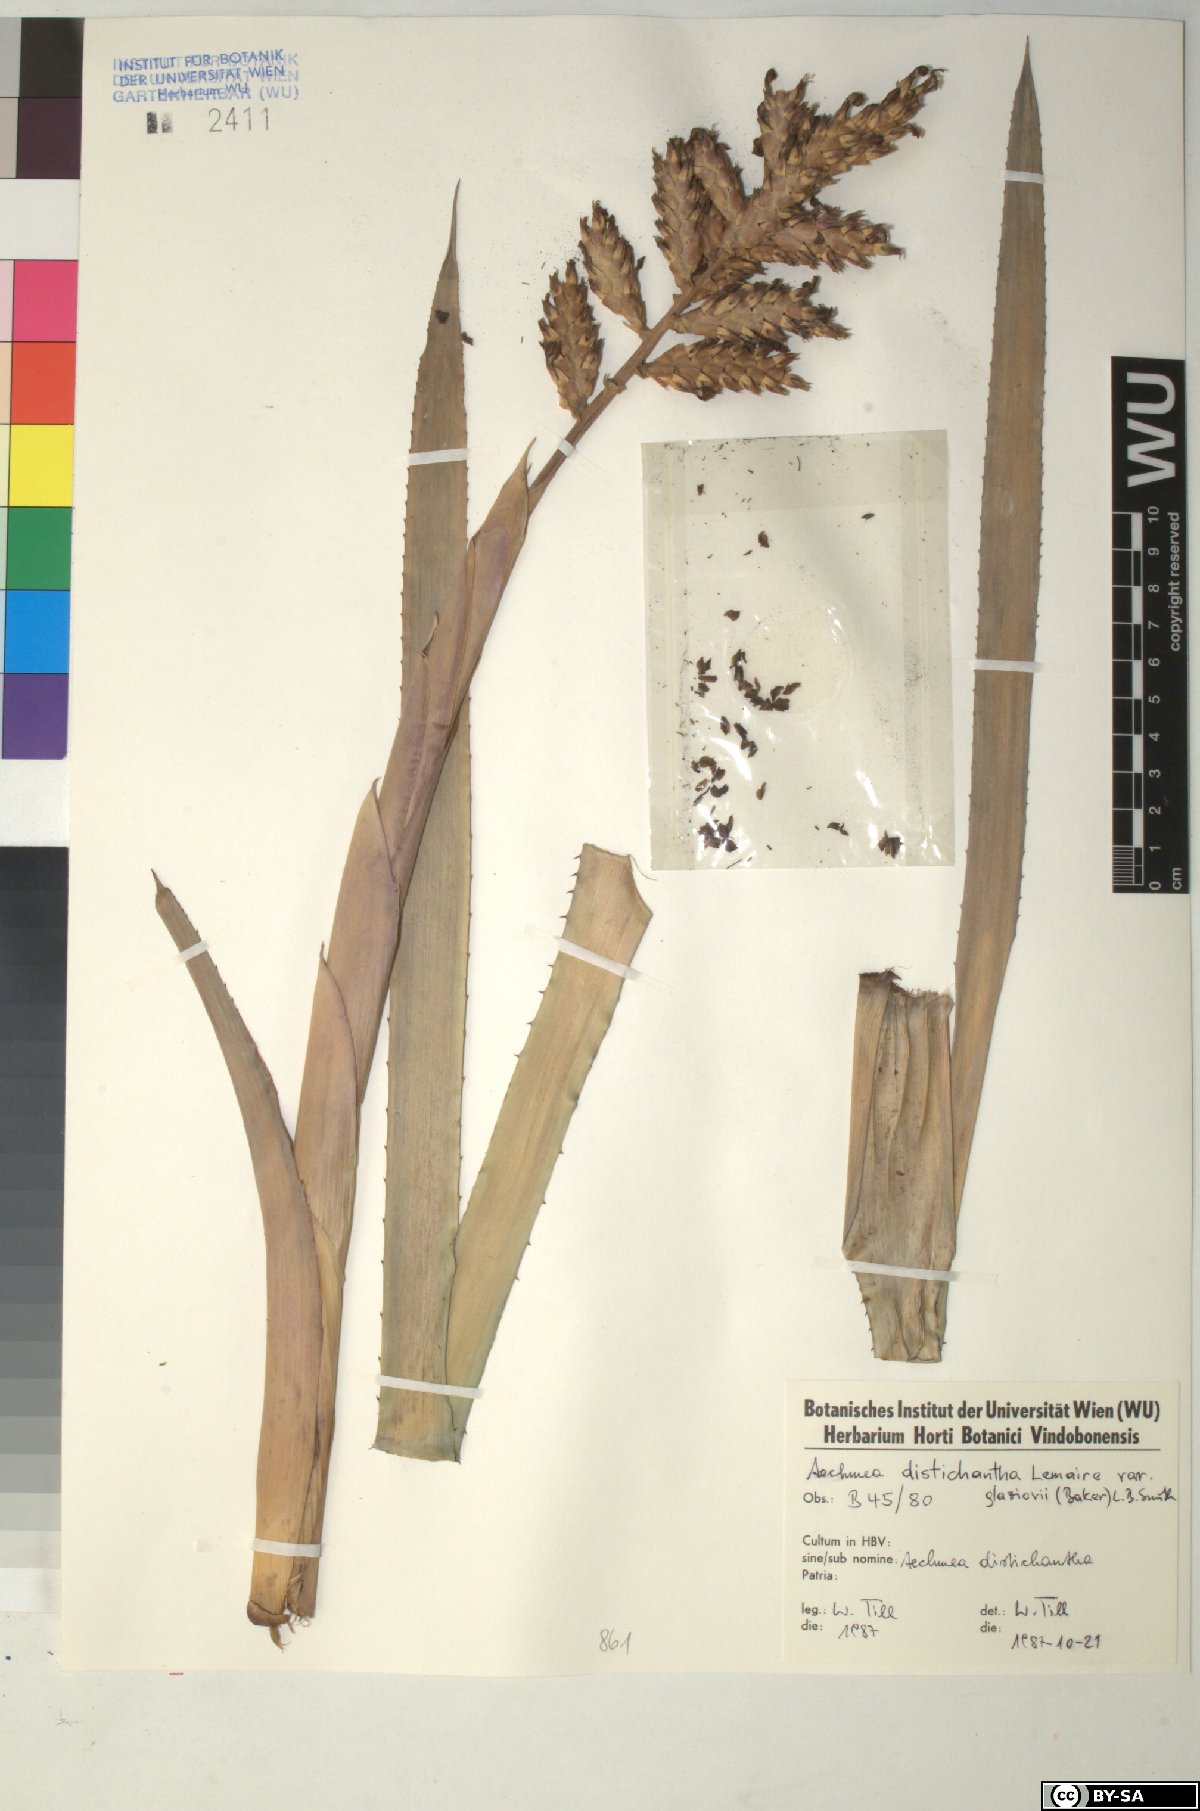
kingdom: Plantae
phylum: Tracheophyta
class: Liliopsida
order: Poales
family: Bromeliaceae
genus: Aechmea
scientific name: Aechmea distichantha
